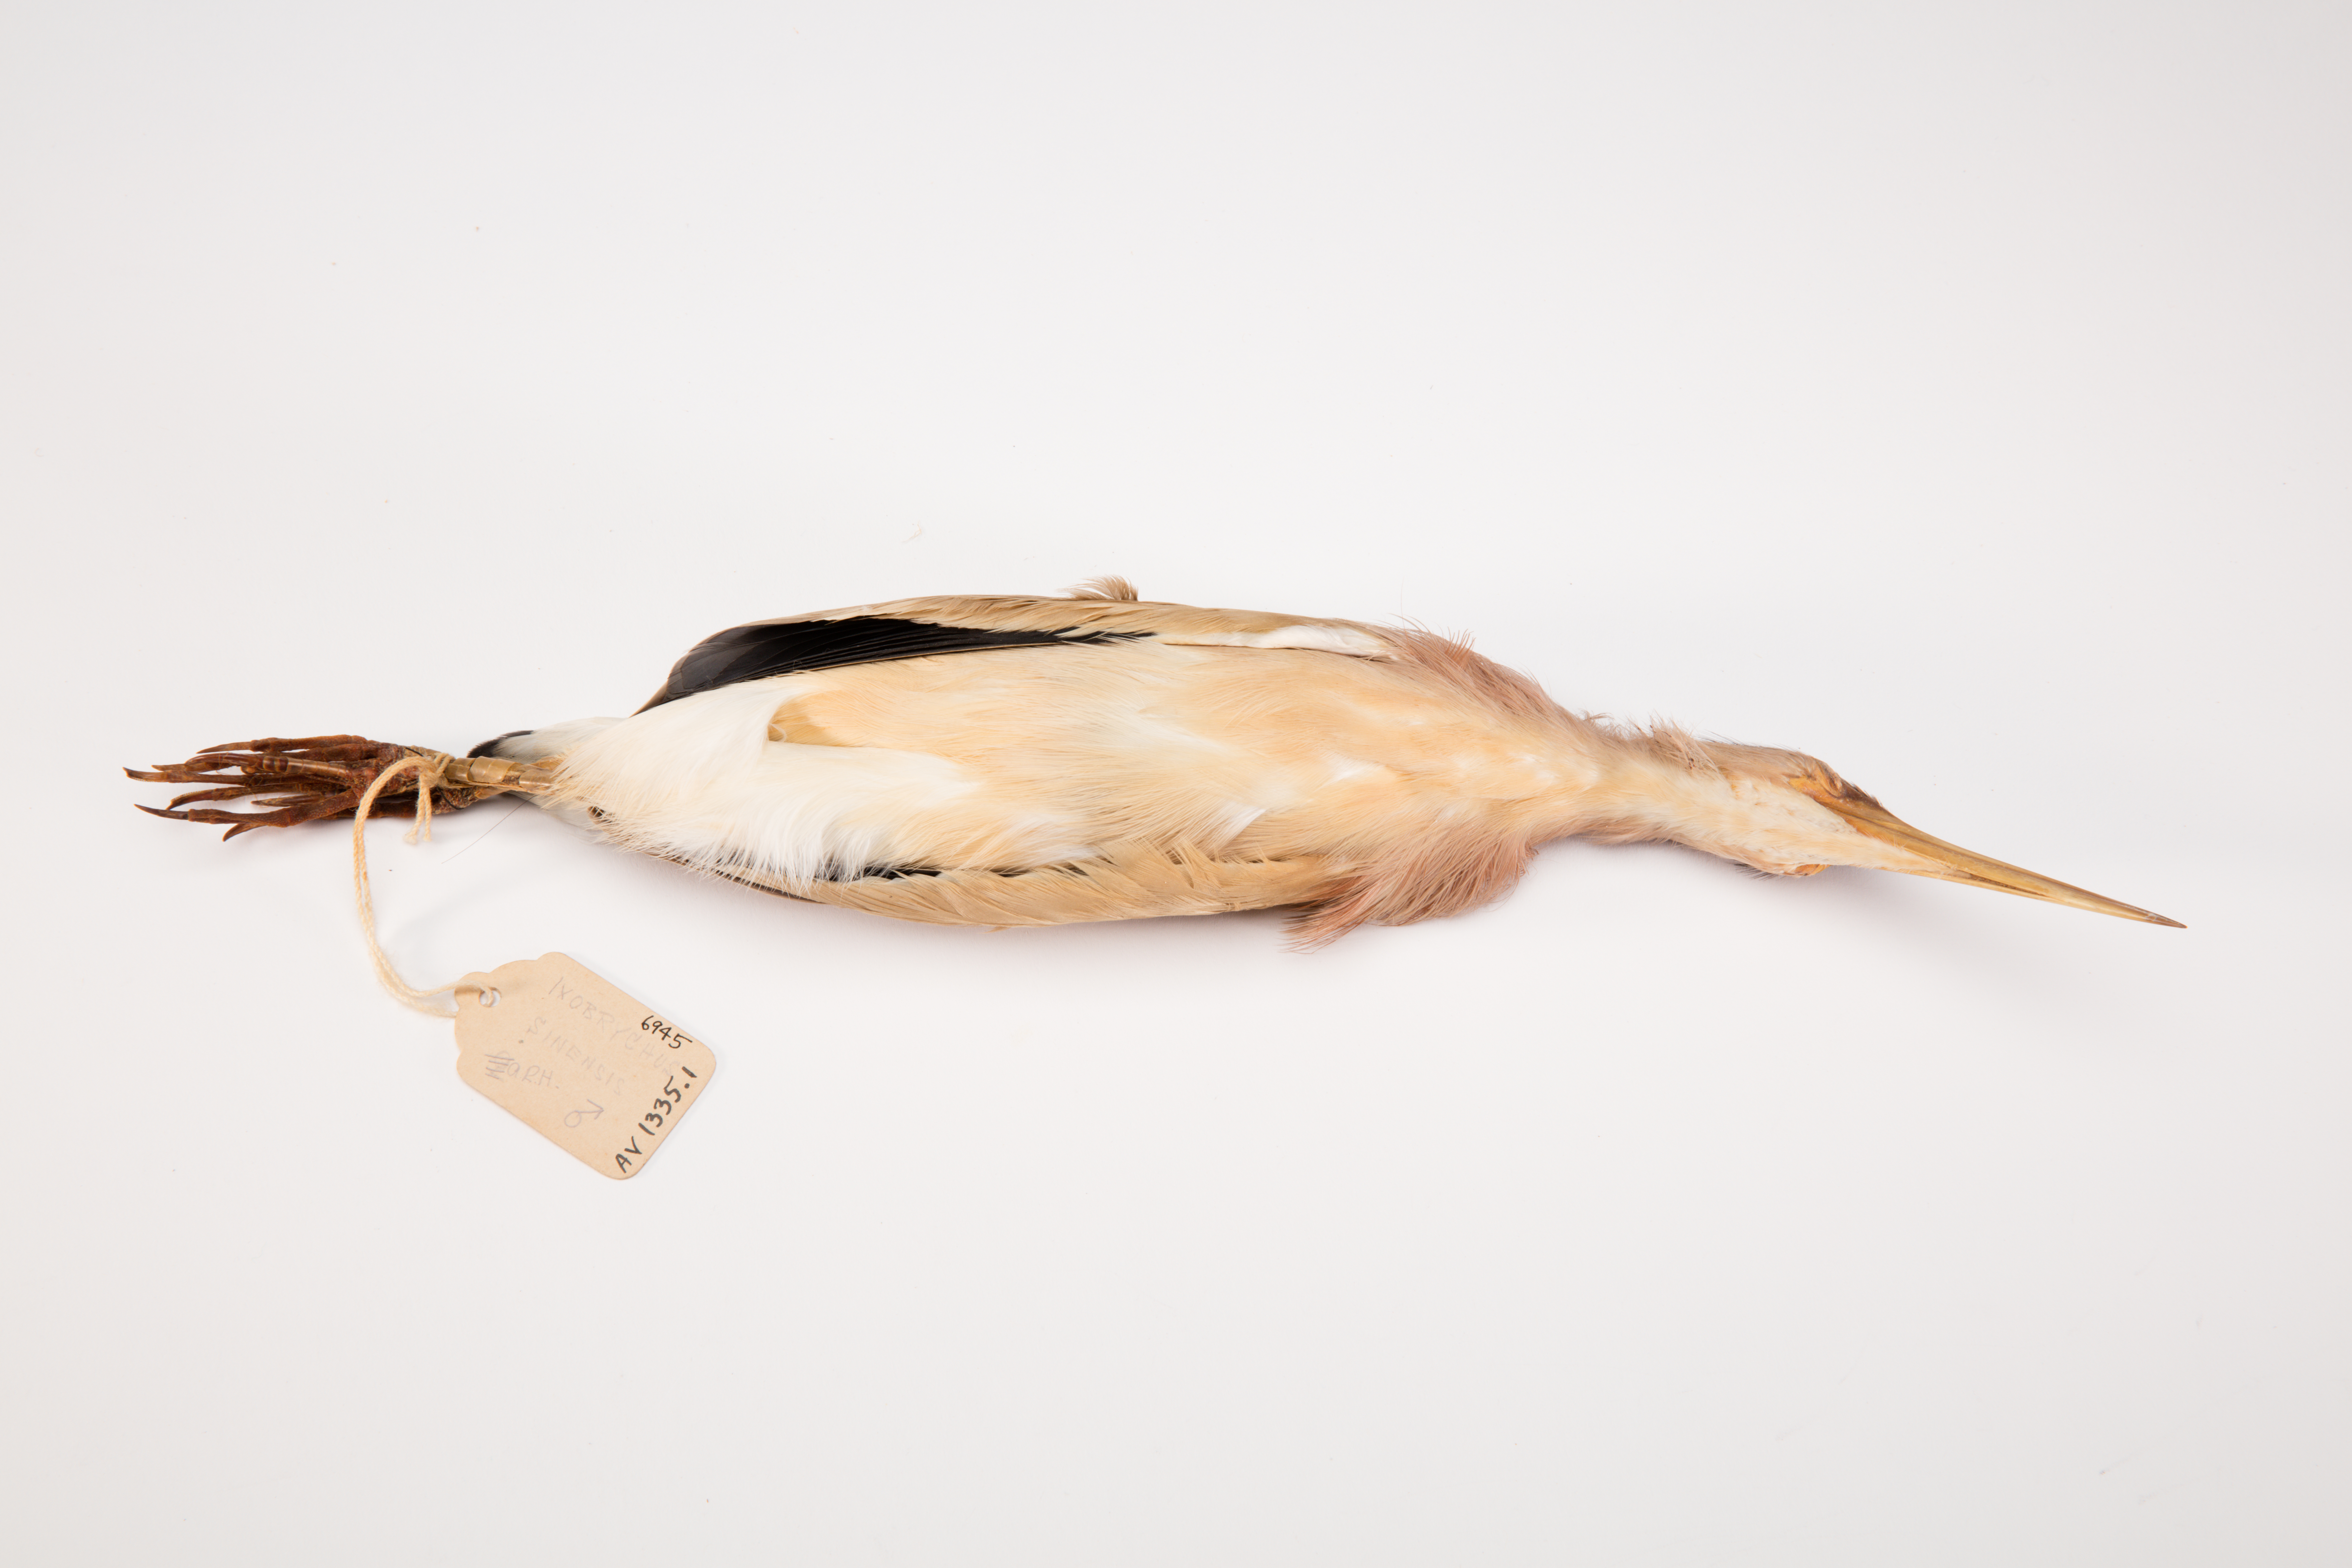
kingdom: Animalia
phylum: Chordata
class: Aves
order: Pelecaniformes
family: Ardeidae
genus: Ixobrychus
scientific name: Ixobrychus sinensis
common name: Yellow bittern
